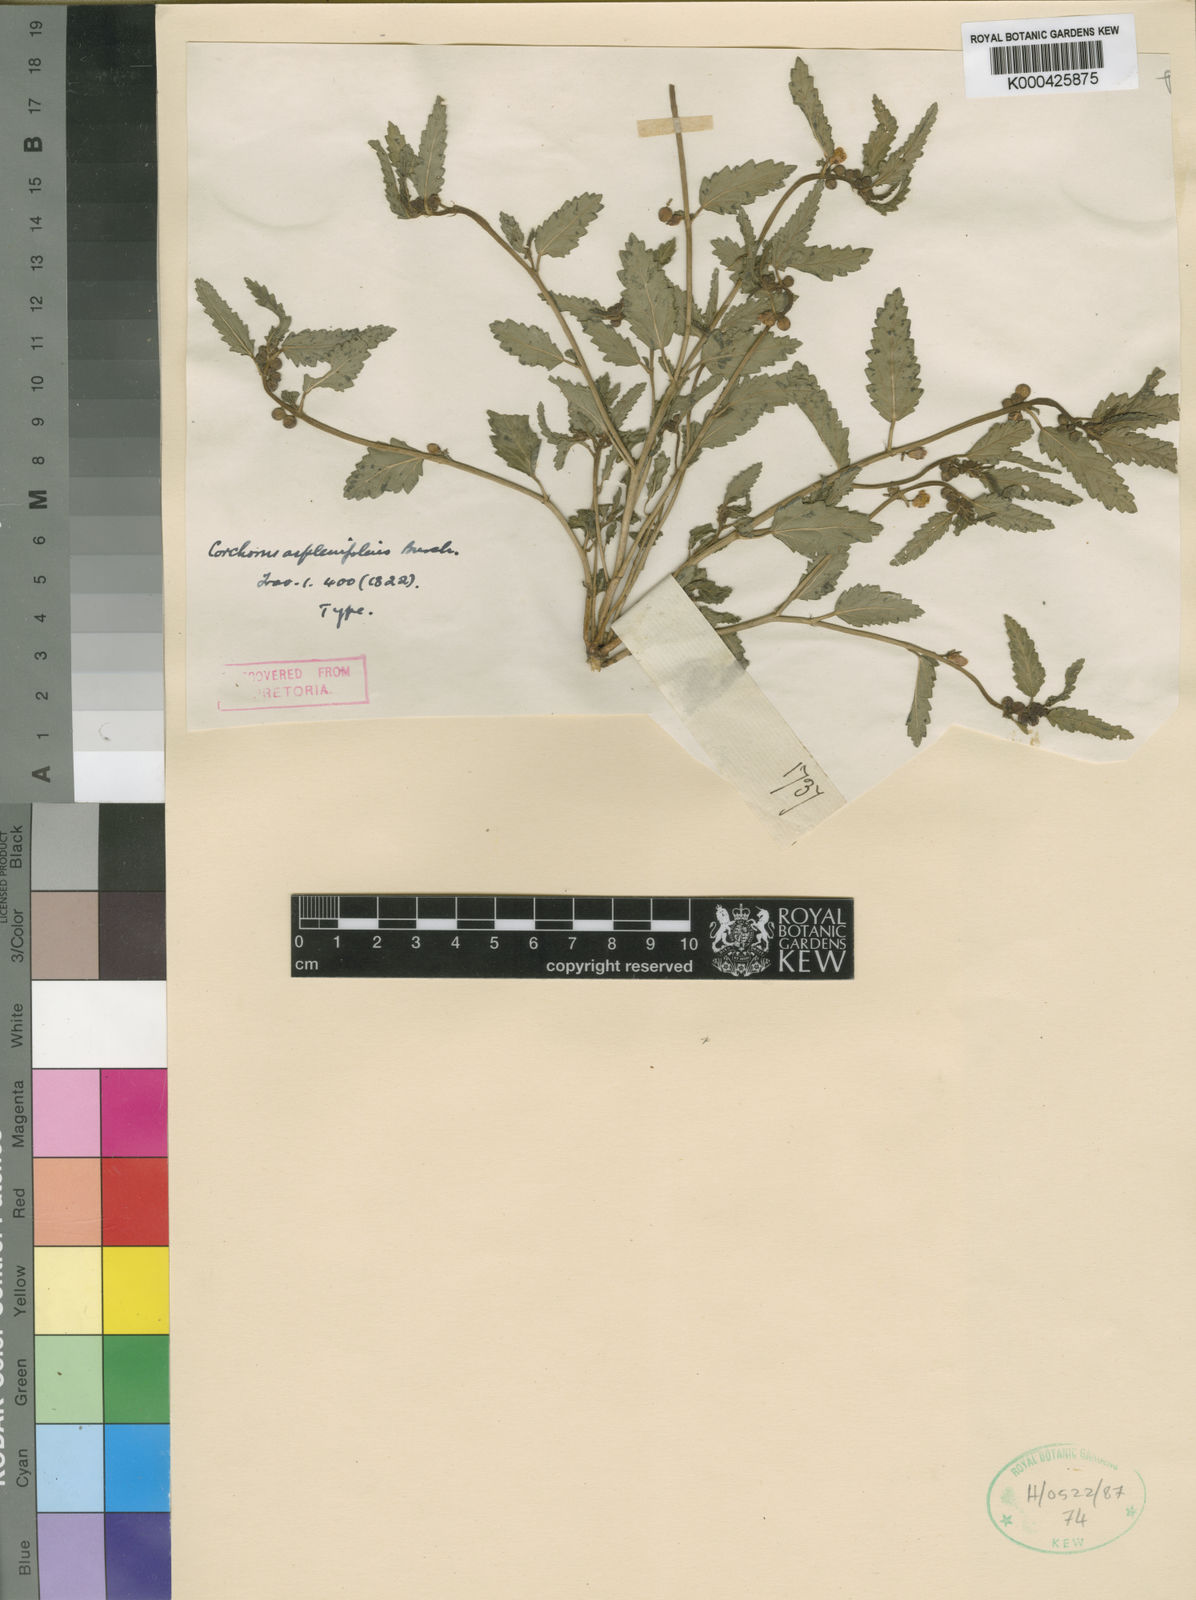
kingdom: Plantae
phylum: Tracheophyta
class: Magnoliopsida
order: Malvales
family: Malvaceae
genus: Corchorus
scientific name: Corchorus asplenifolius
